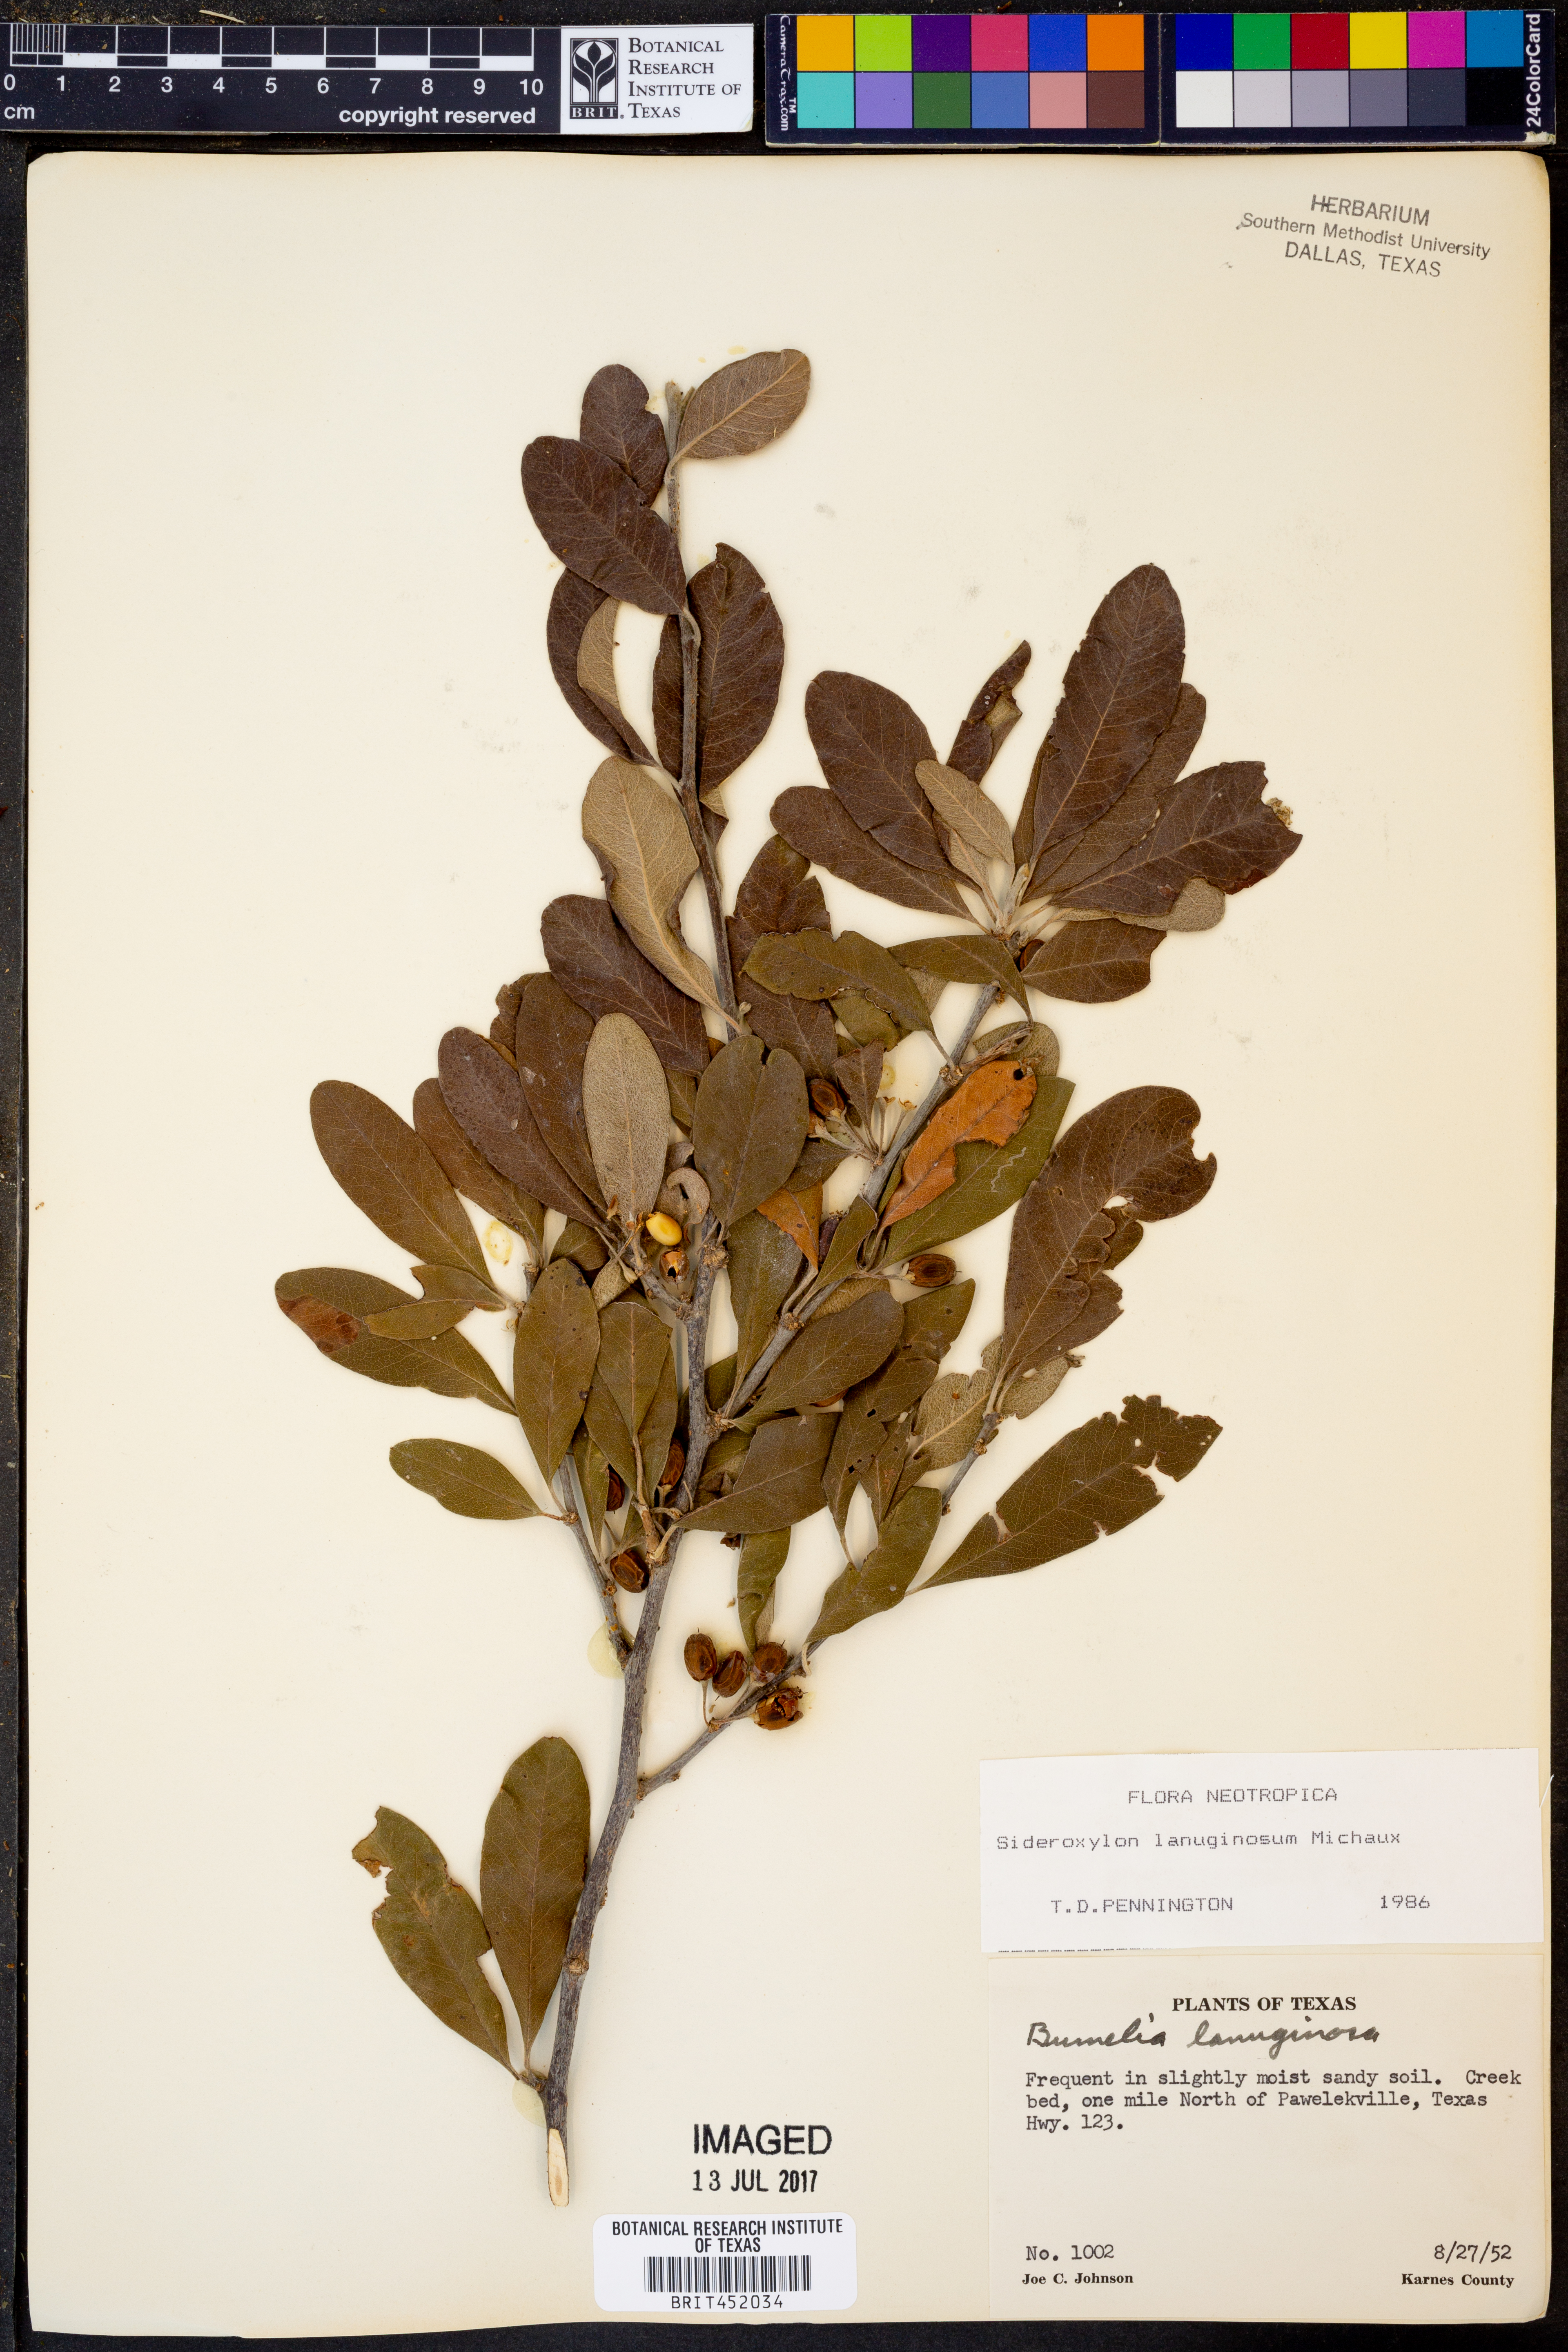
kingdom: Plantae
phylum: Tracheophyta
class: Magnoliopsida
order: Ericales
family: Sapotaceae
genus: Sideroxylon
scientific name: Sideroxylon lanuginosum
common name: Chittamwood
